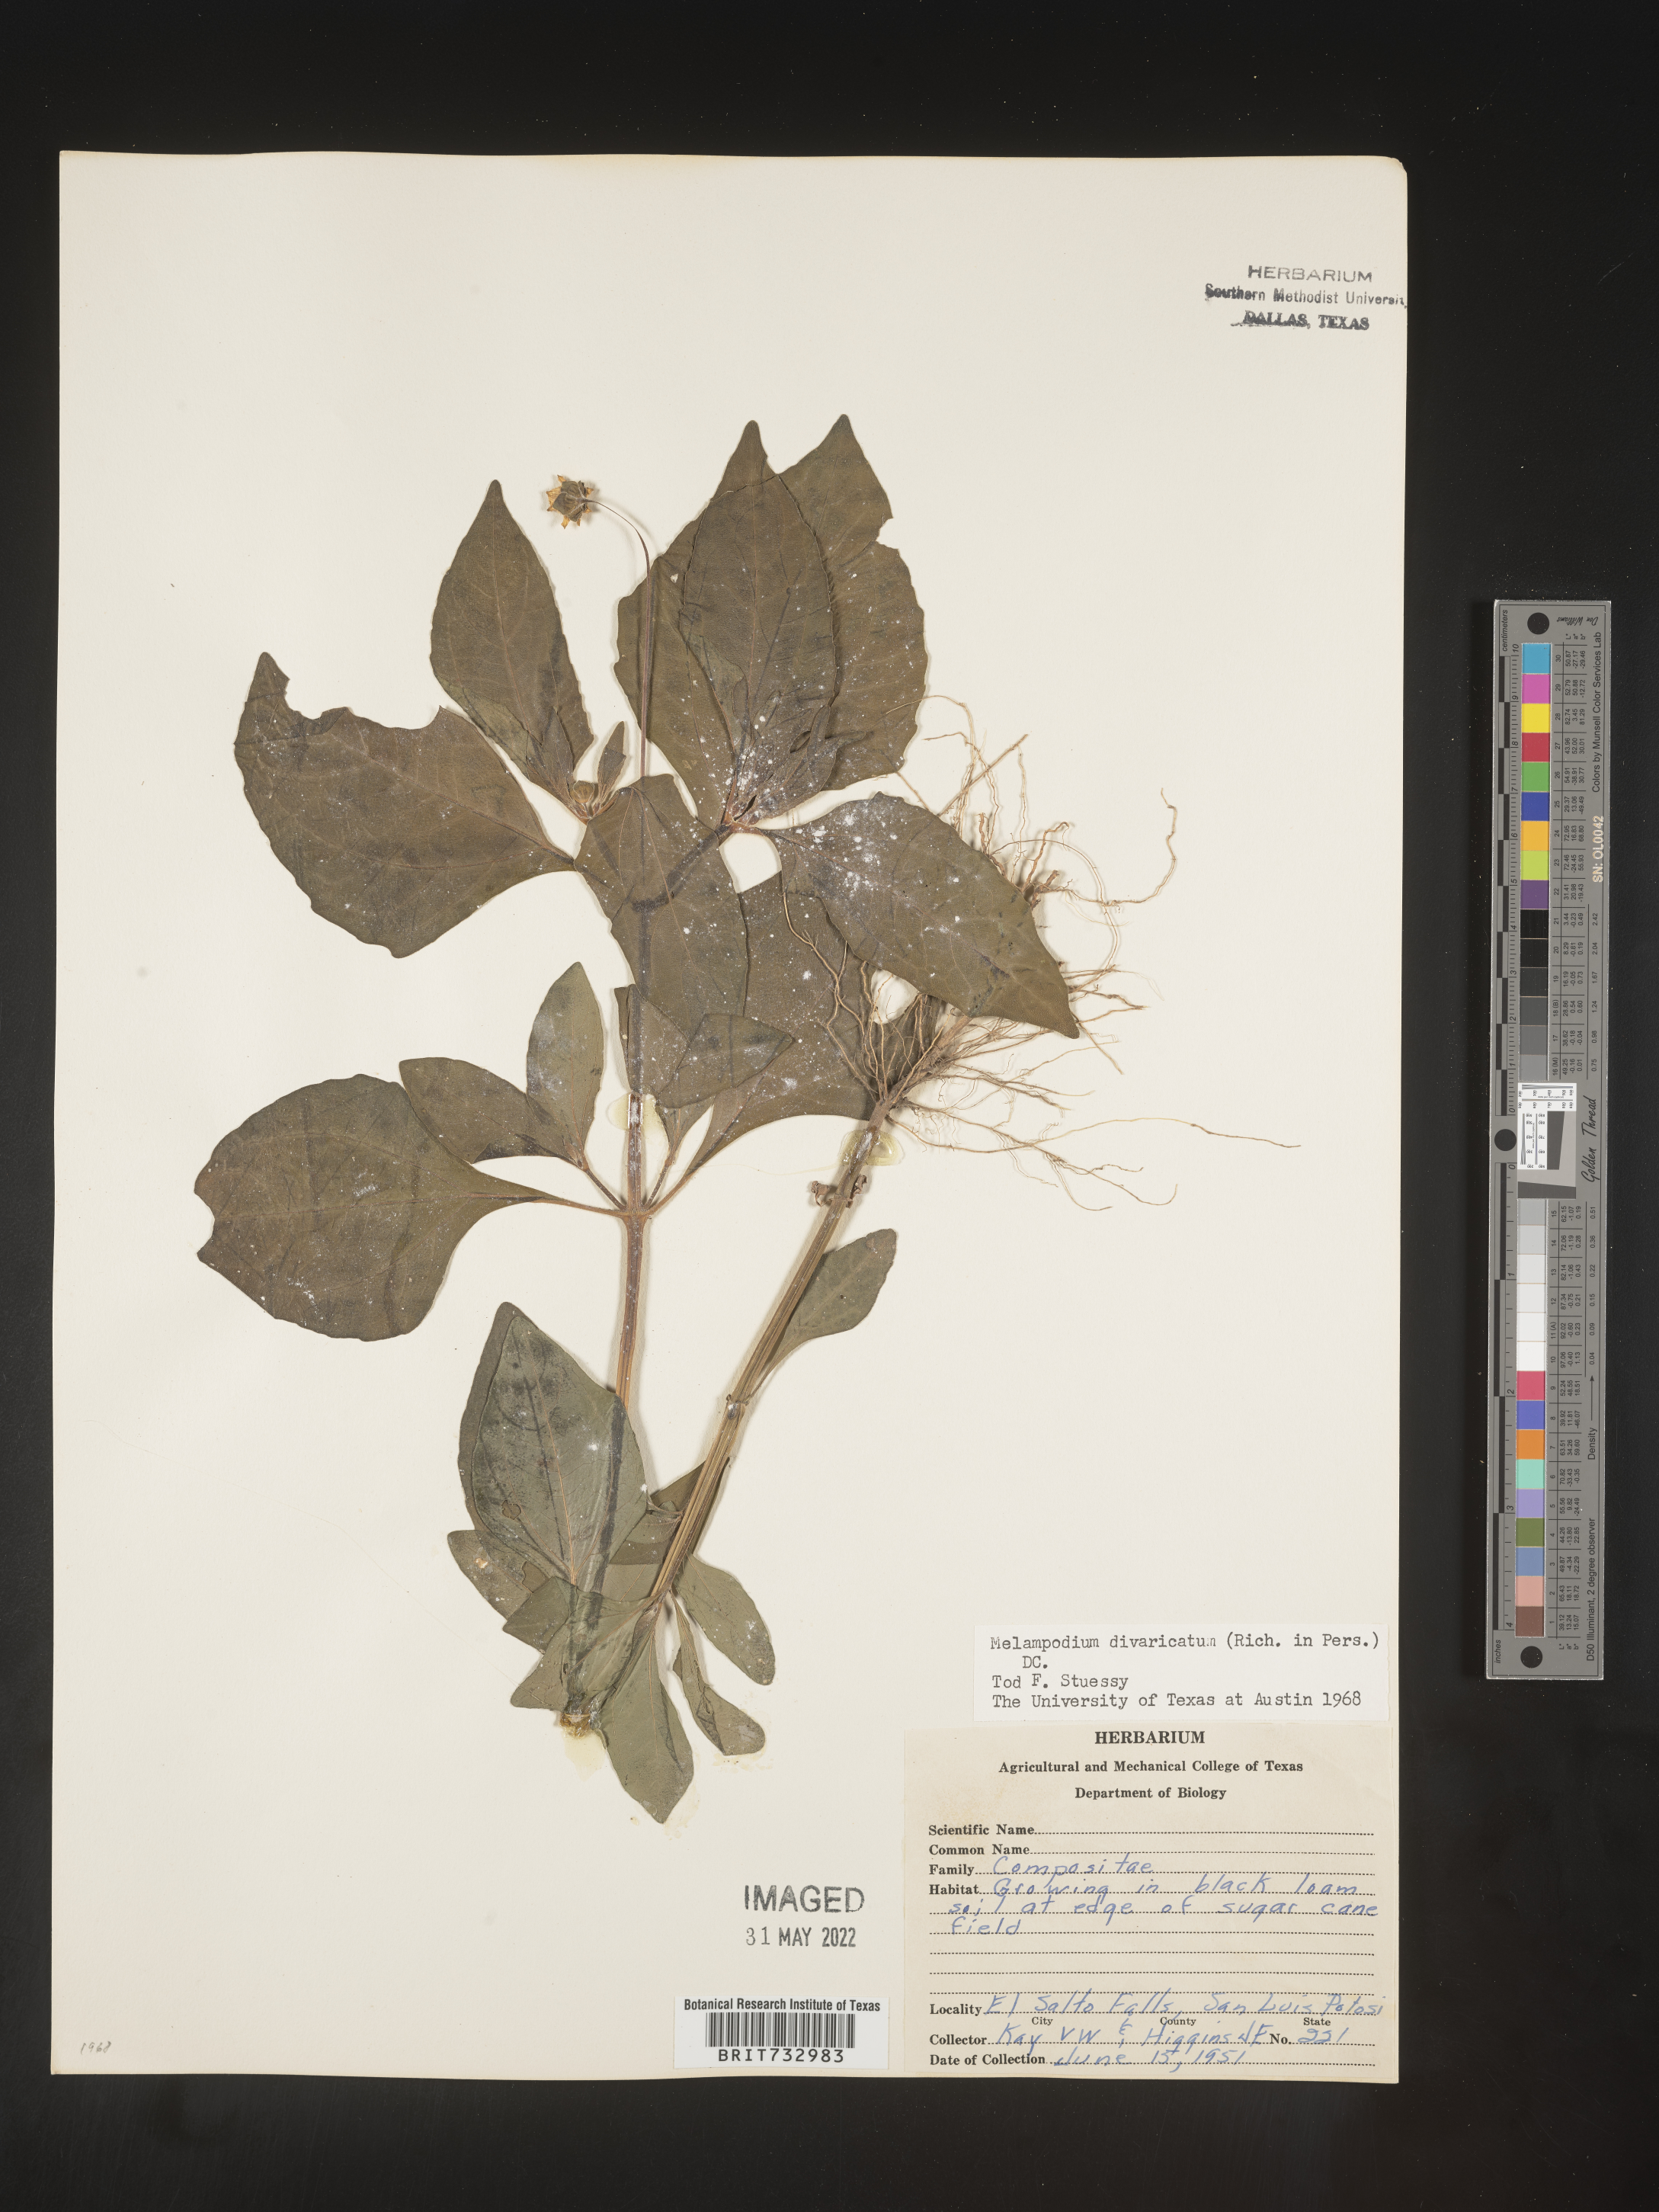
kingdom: Plantae
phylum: Tracheophyta
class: Magnoliopsida
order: Asterales
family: Asteraceae
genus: Melampodium
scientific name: Melampodium
